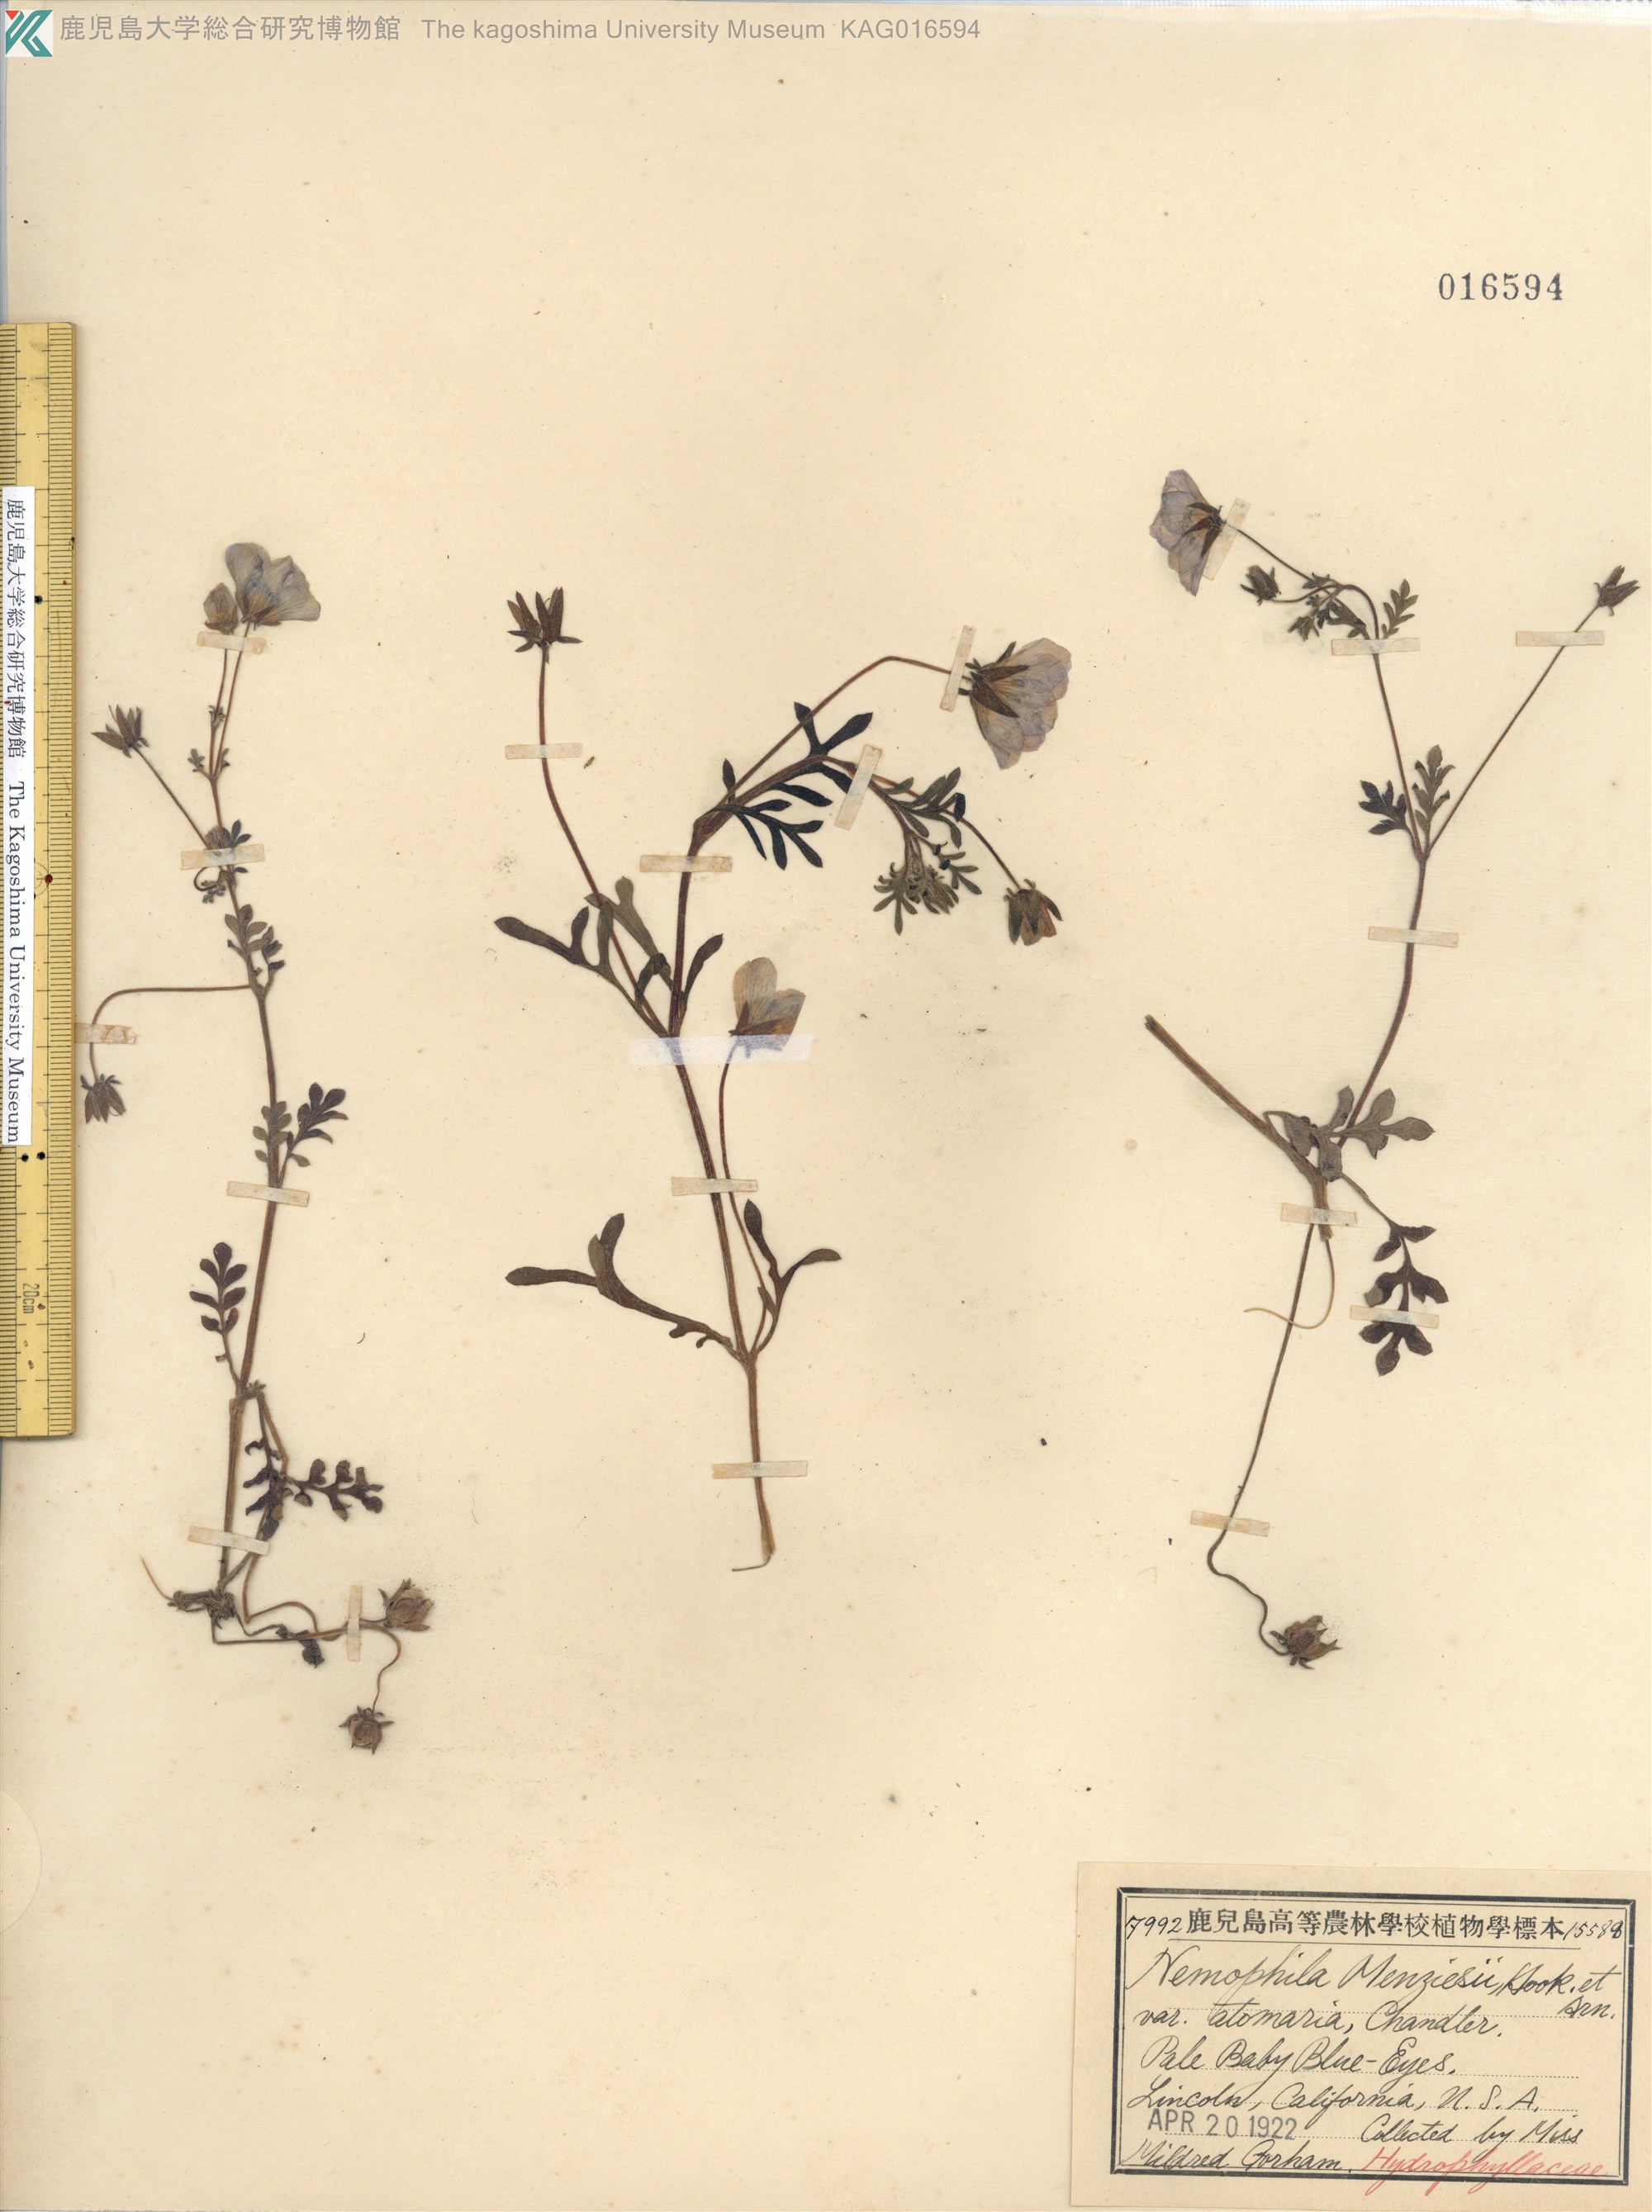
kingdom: Plantae
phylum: Tracheophyta
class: Magnoliopsida
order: Boraginales
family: Hydrophyllaceae
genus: Nemophila
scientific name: Nemophila menziesii
